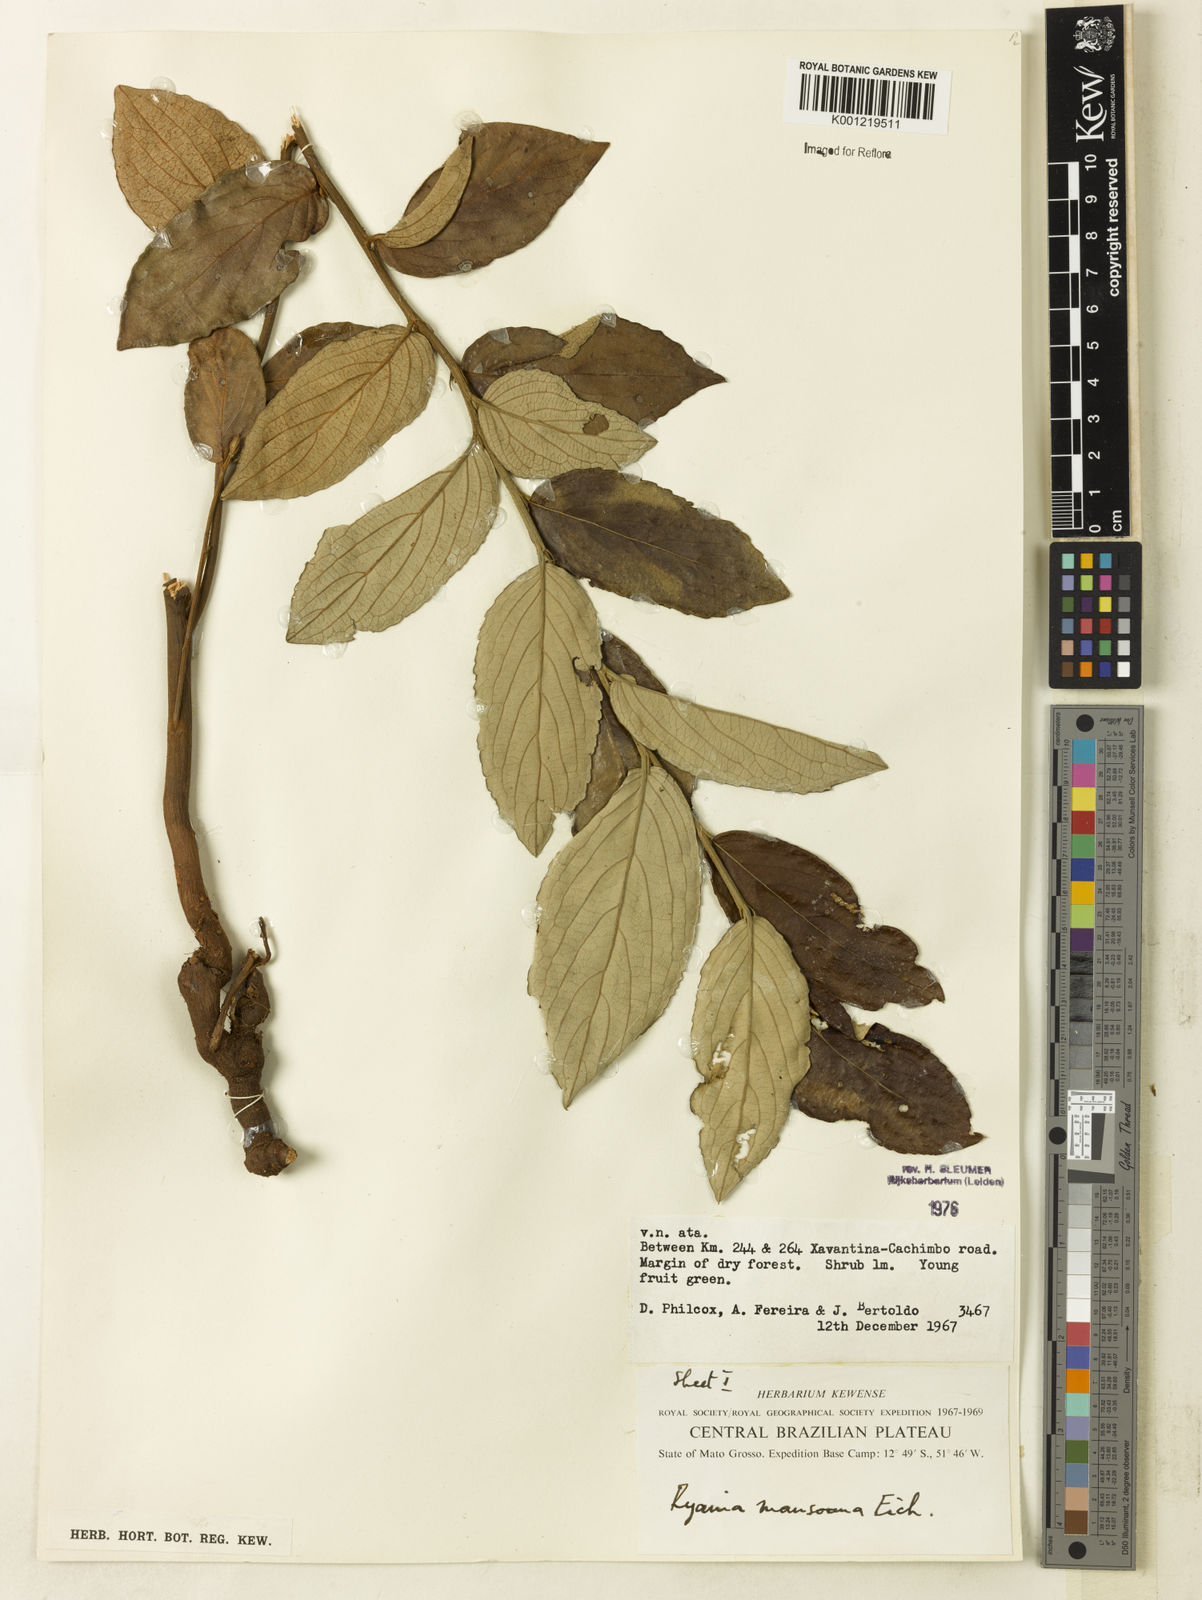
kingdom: Plantae
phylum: Tracheophyta
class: Magnoliopsida
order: Malpighiales
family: Salicaceae
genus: Ryania
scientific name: Ryania mansoana
